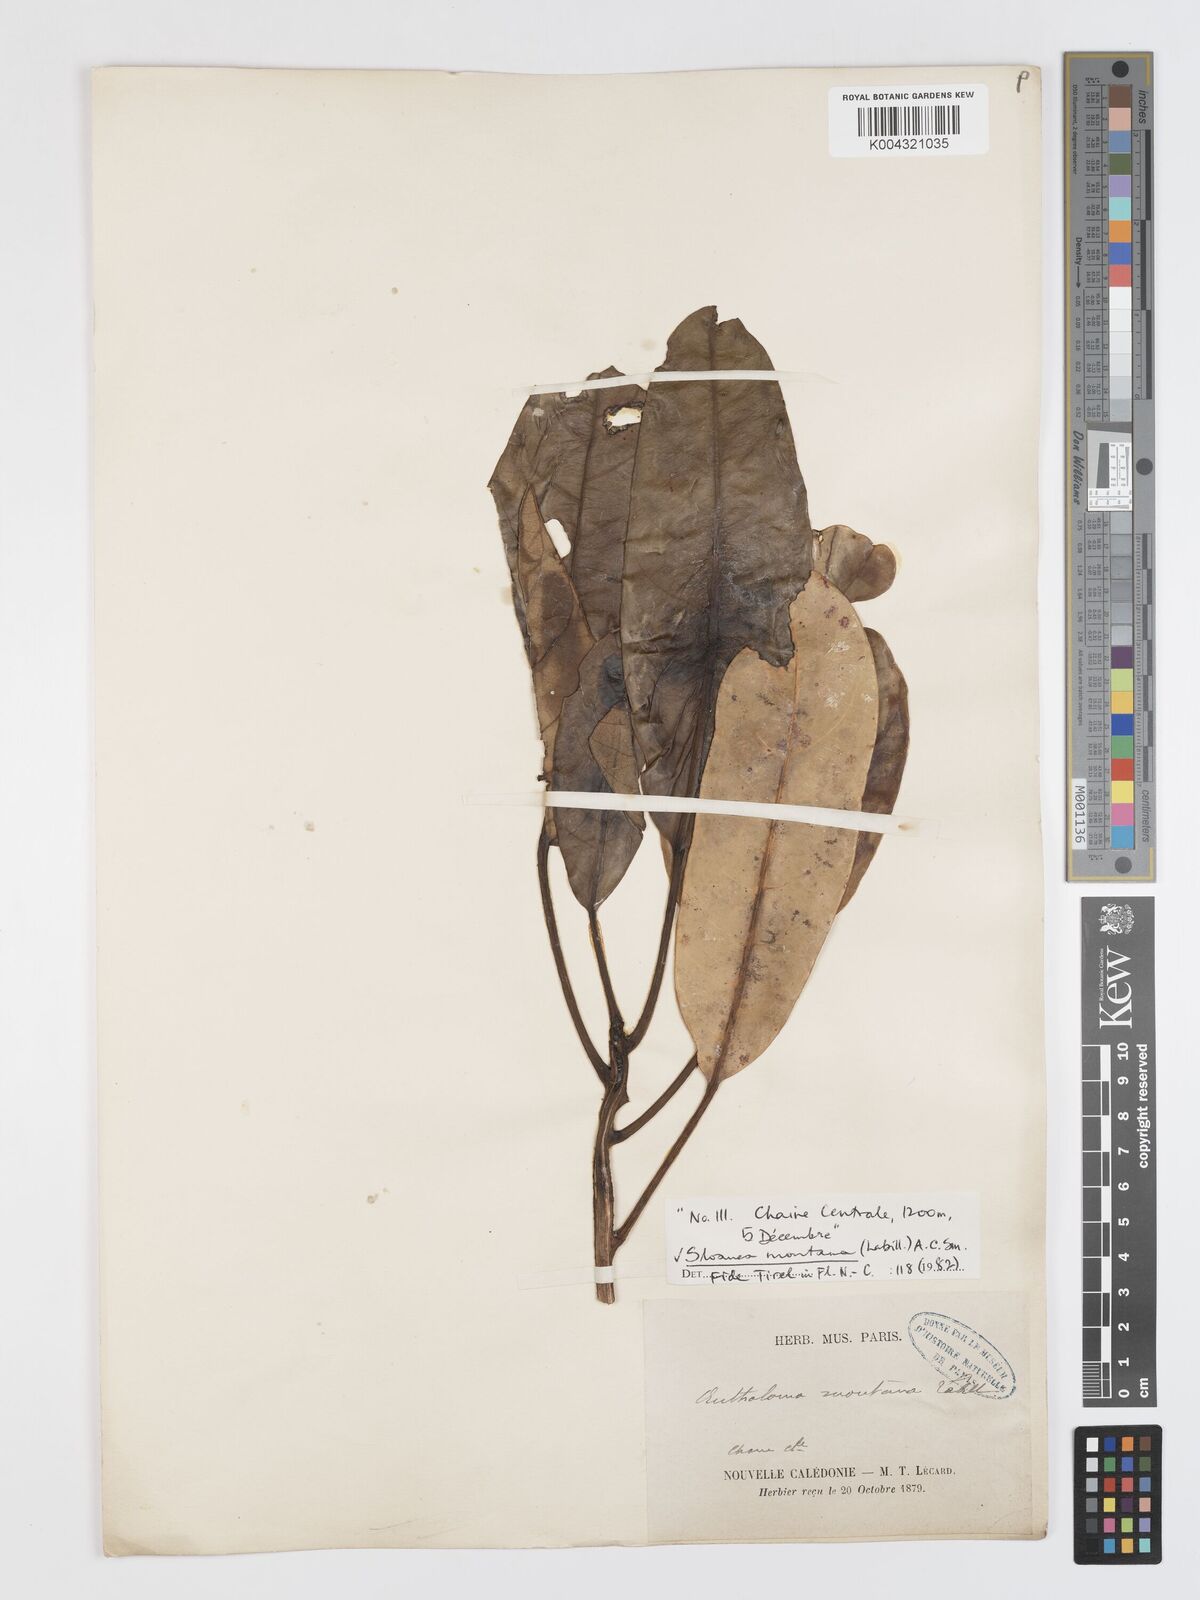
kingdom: Plantae
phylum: Tracheophyta
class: Magnoliopsida
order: Oxalidales
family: Elaeocarpaceae
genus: Sloanea
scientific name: Sloanea montana
